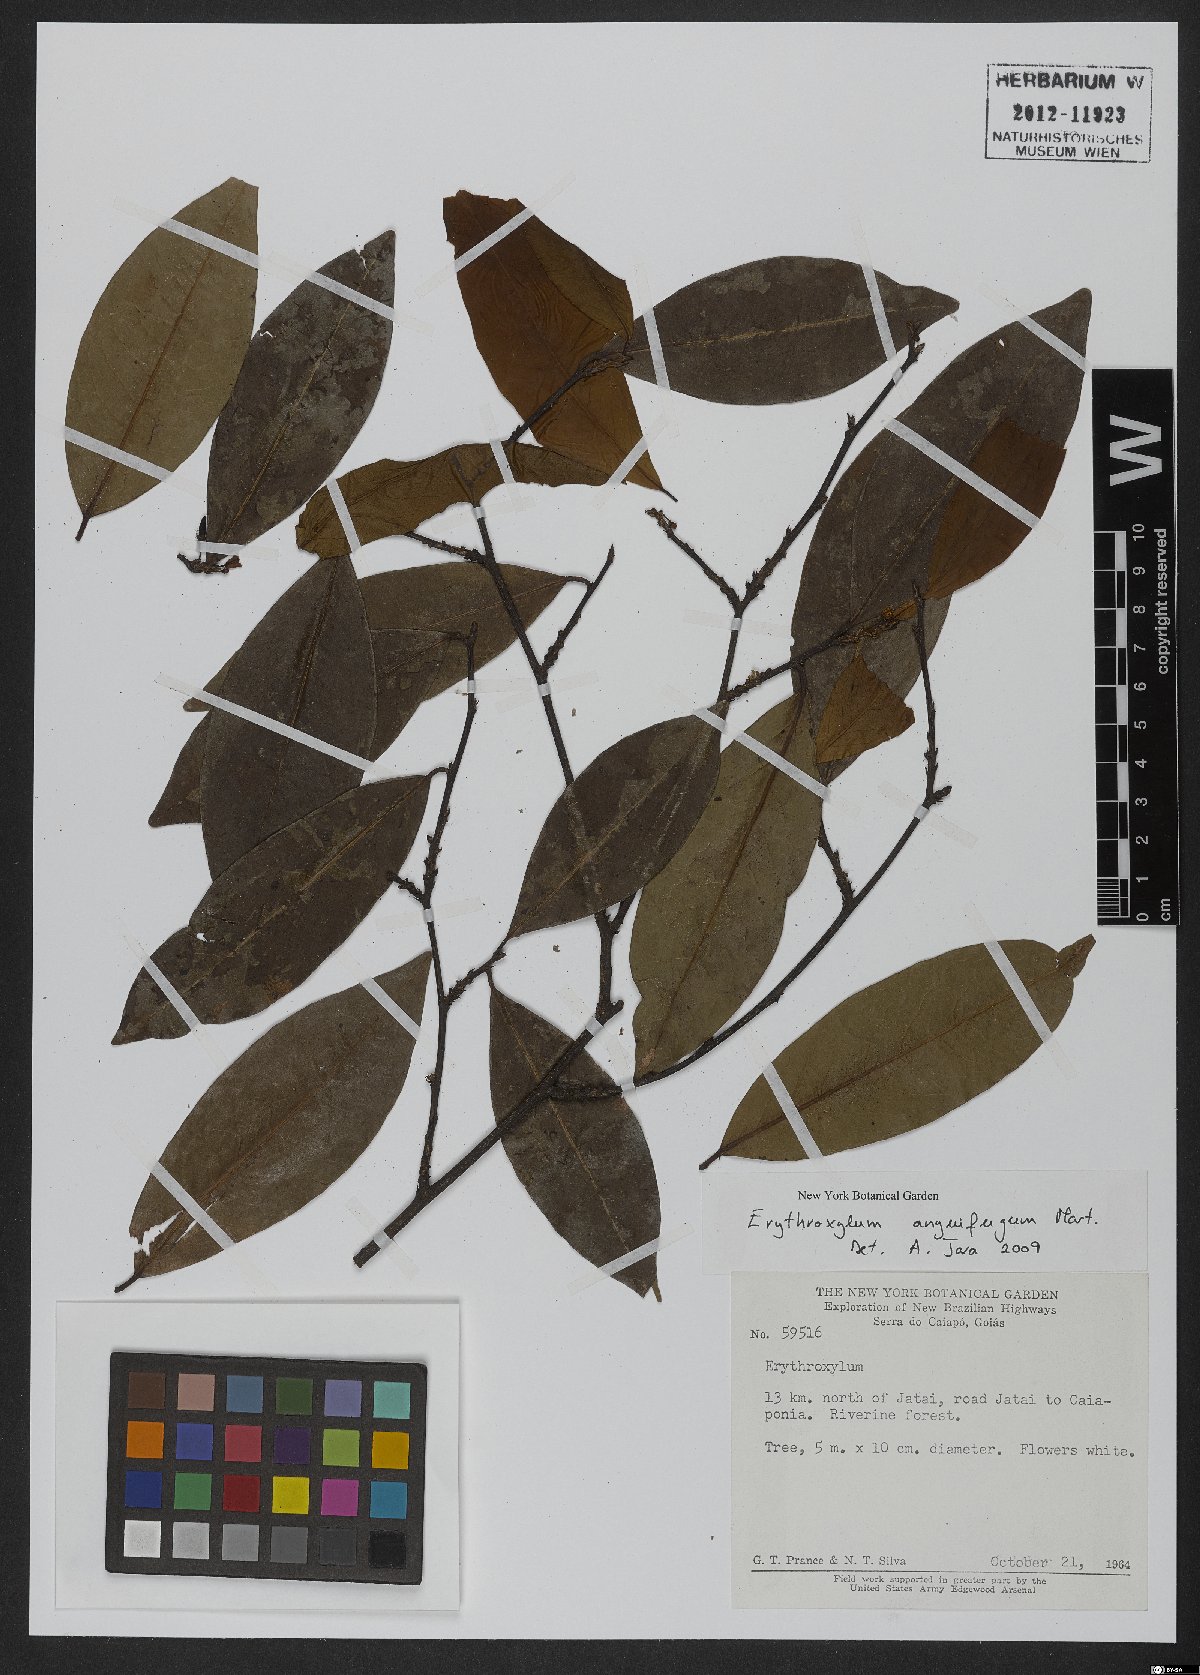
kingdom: Plantae
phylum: Tracheophyta
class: Magnoliopsida
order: Malpighiales
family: Erythroxylaceae
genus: Erythroxylum
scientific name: Erythroxylum anguifugum
